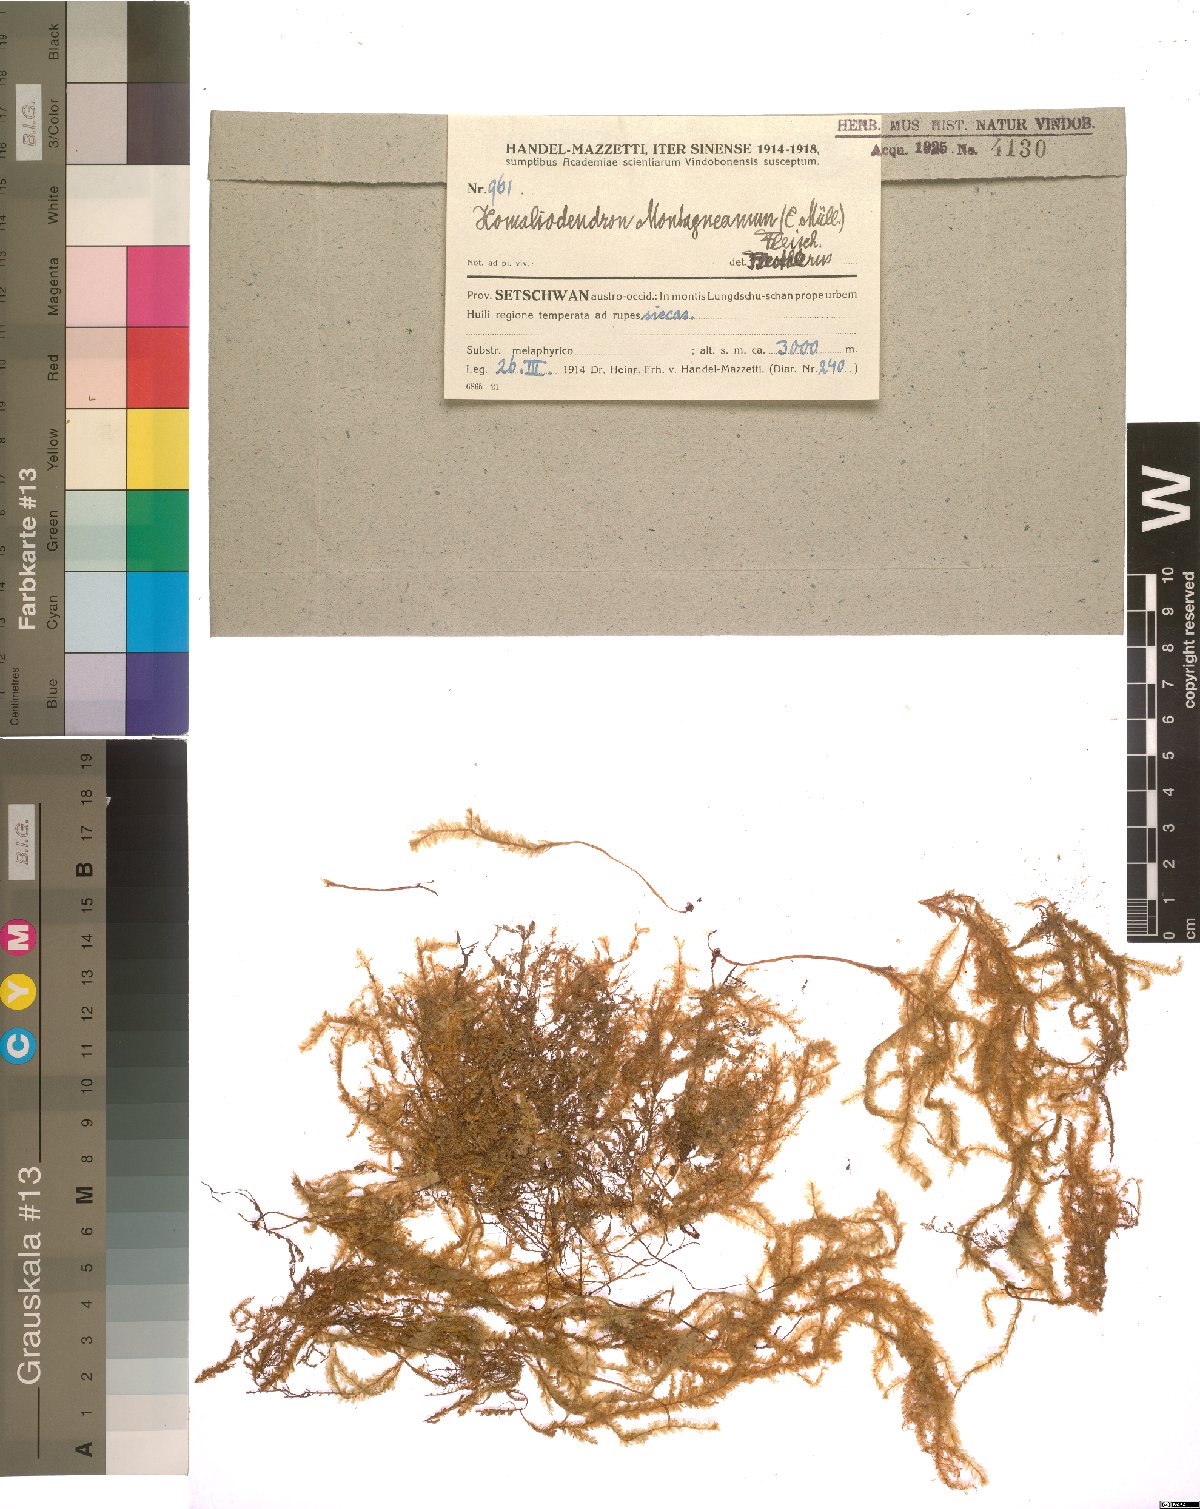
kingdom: Plantae
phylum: Bryophyta
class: Bryopsida
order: Hypnales
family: Neckeraceae
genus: Homaliodendron
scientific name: Homaliodendron montagneanum
